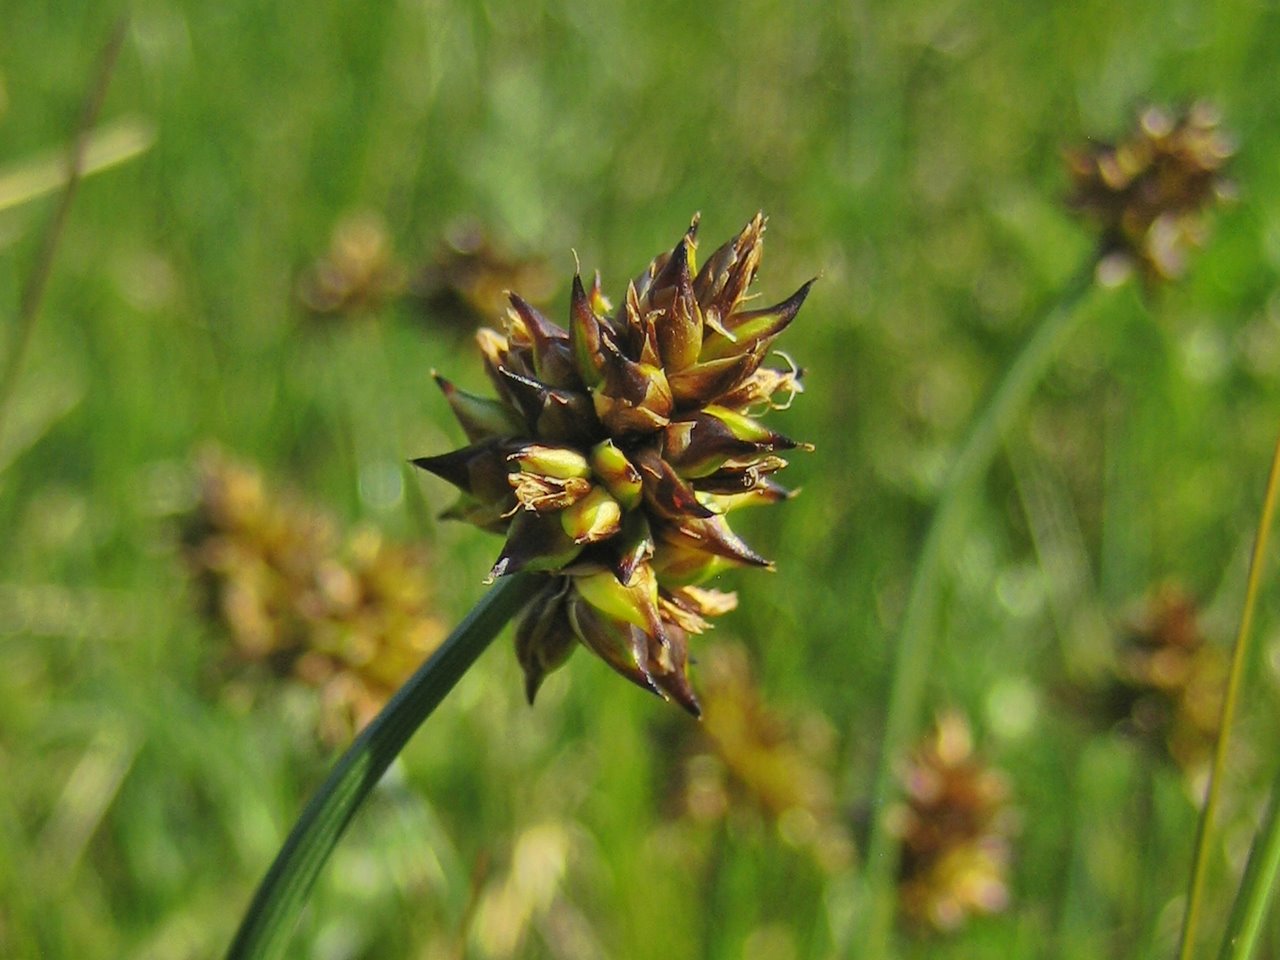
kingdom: Plantae
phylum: Tracheophyta
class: Liliopsida
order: Poales
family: Cyperaceae
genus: Carex
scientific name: Carex maritima
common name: Curved sedge
